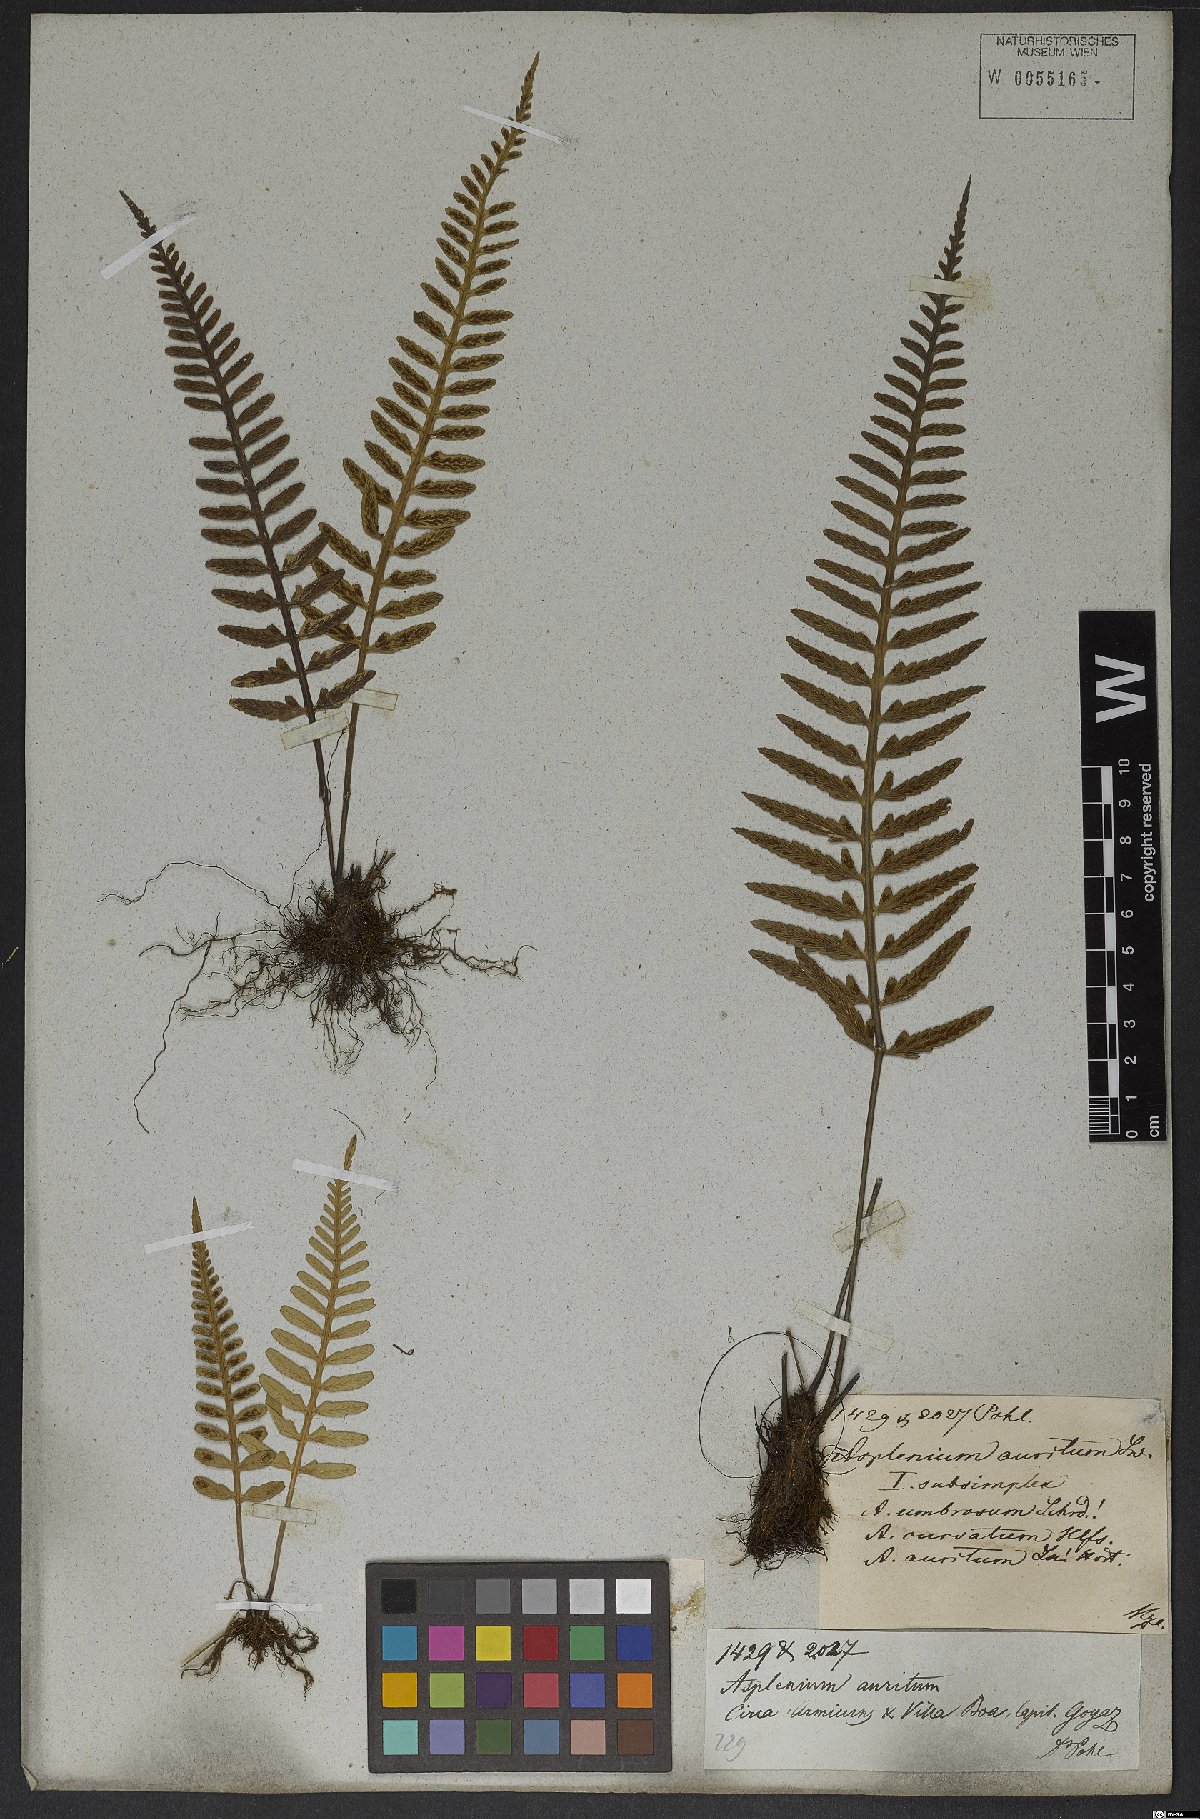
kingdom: Plantae
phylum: Tracheophyta
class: Polypodiopsida
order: Polypodiales
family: Aspleniaceae
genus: Asplenium
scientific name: Asplenium sulcatum
